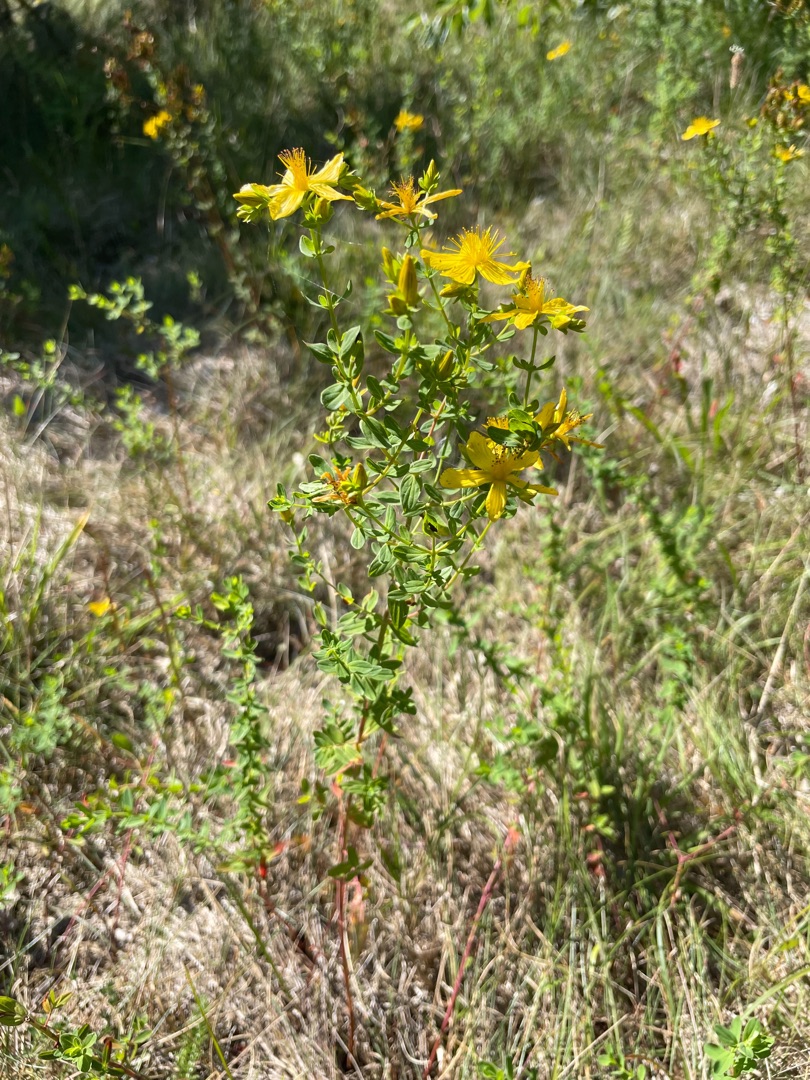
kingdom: Plantae
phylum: Tracheophyta
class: Magnoliopsida
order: Malpighiales
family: Hypericaceae
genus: Hypericum
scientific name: Hypericum perforatum
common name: Prikbladet perikon
